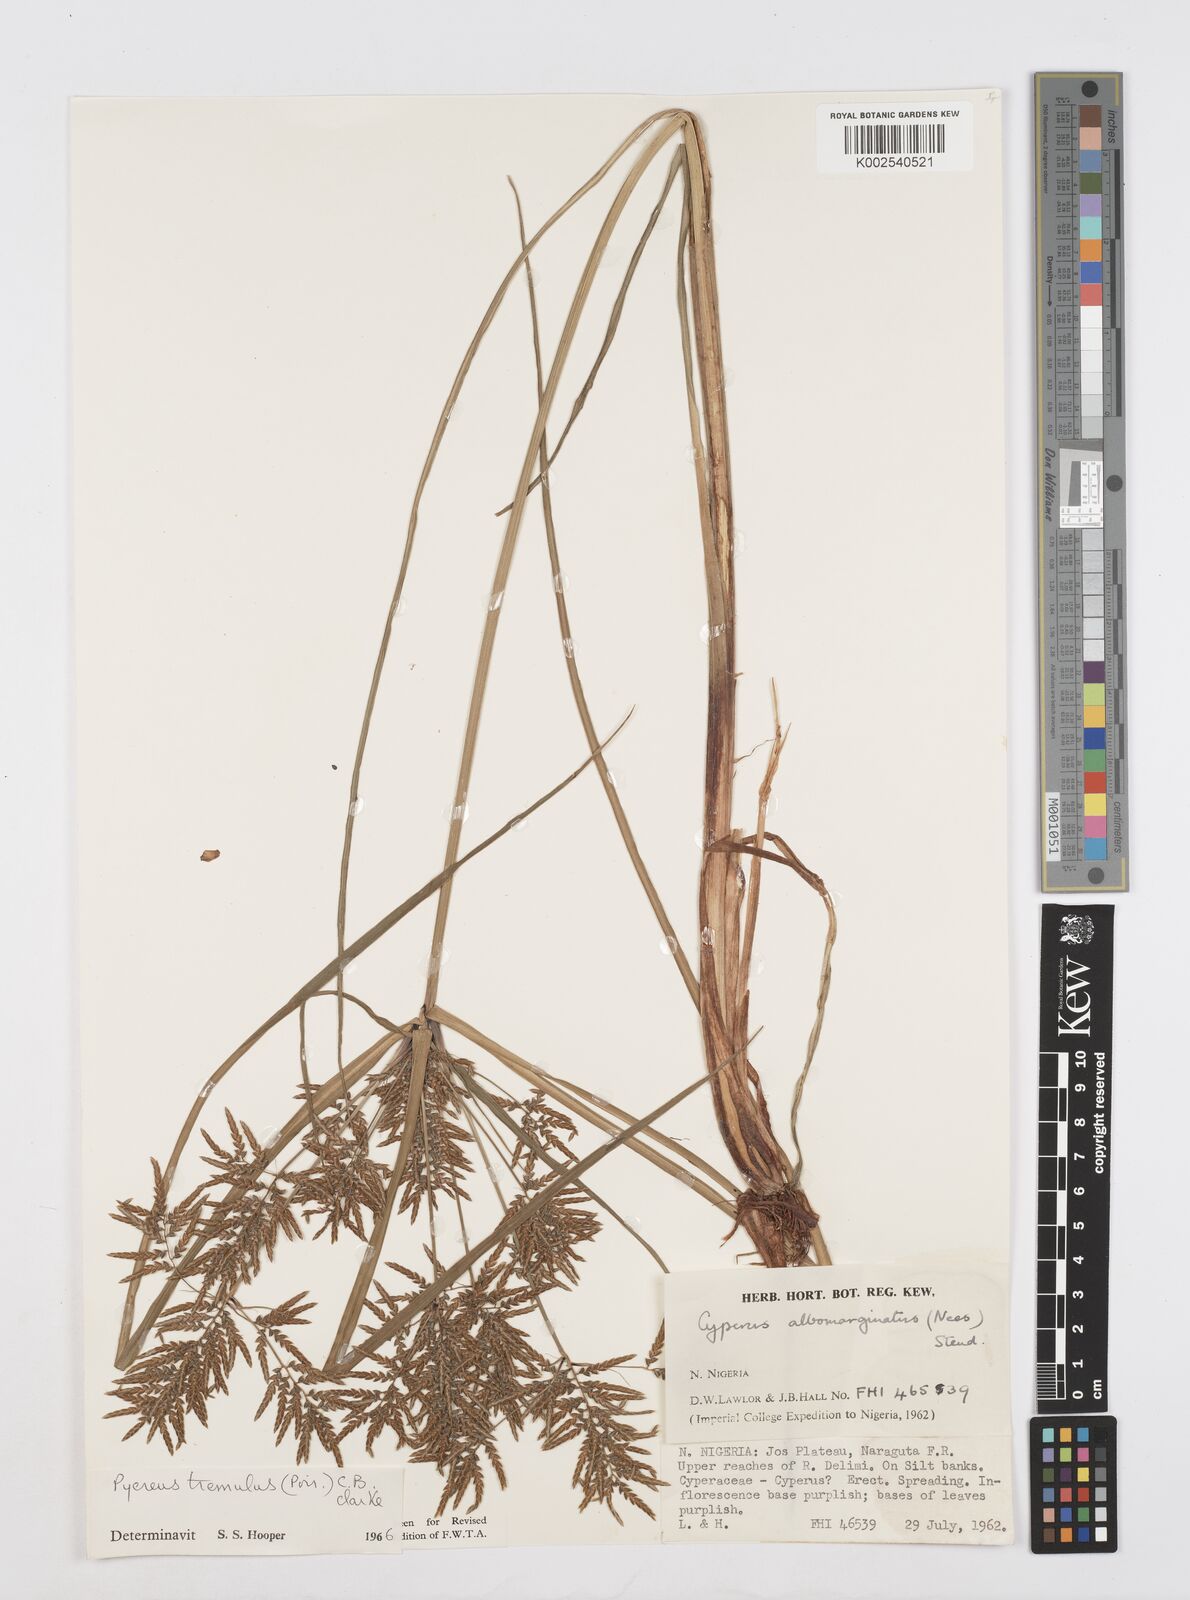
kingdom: Plantae
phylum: Tracheophyta
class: Liliopsida
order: Poales
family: Cyperaceae
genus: Cyperus
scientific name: Cyperus macrostachyos
